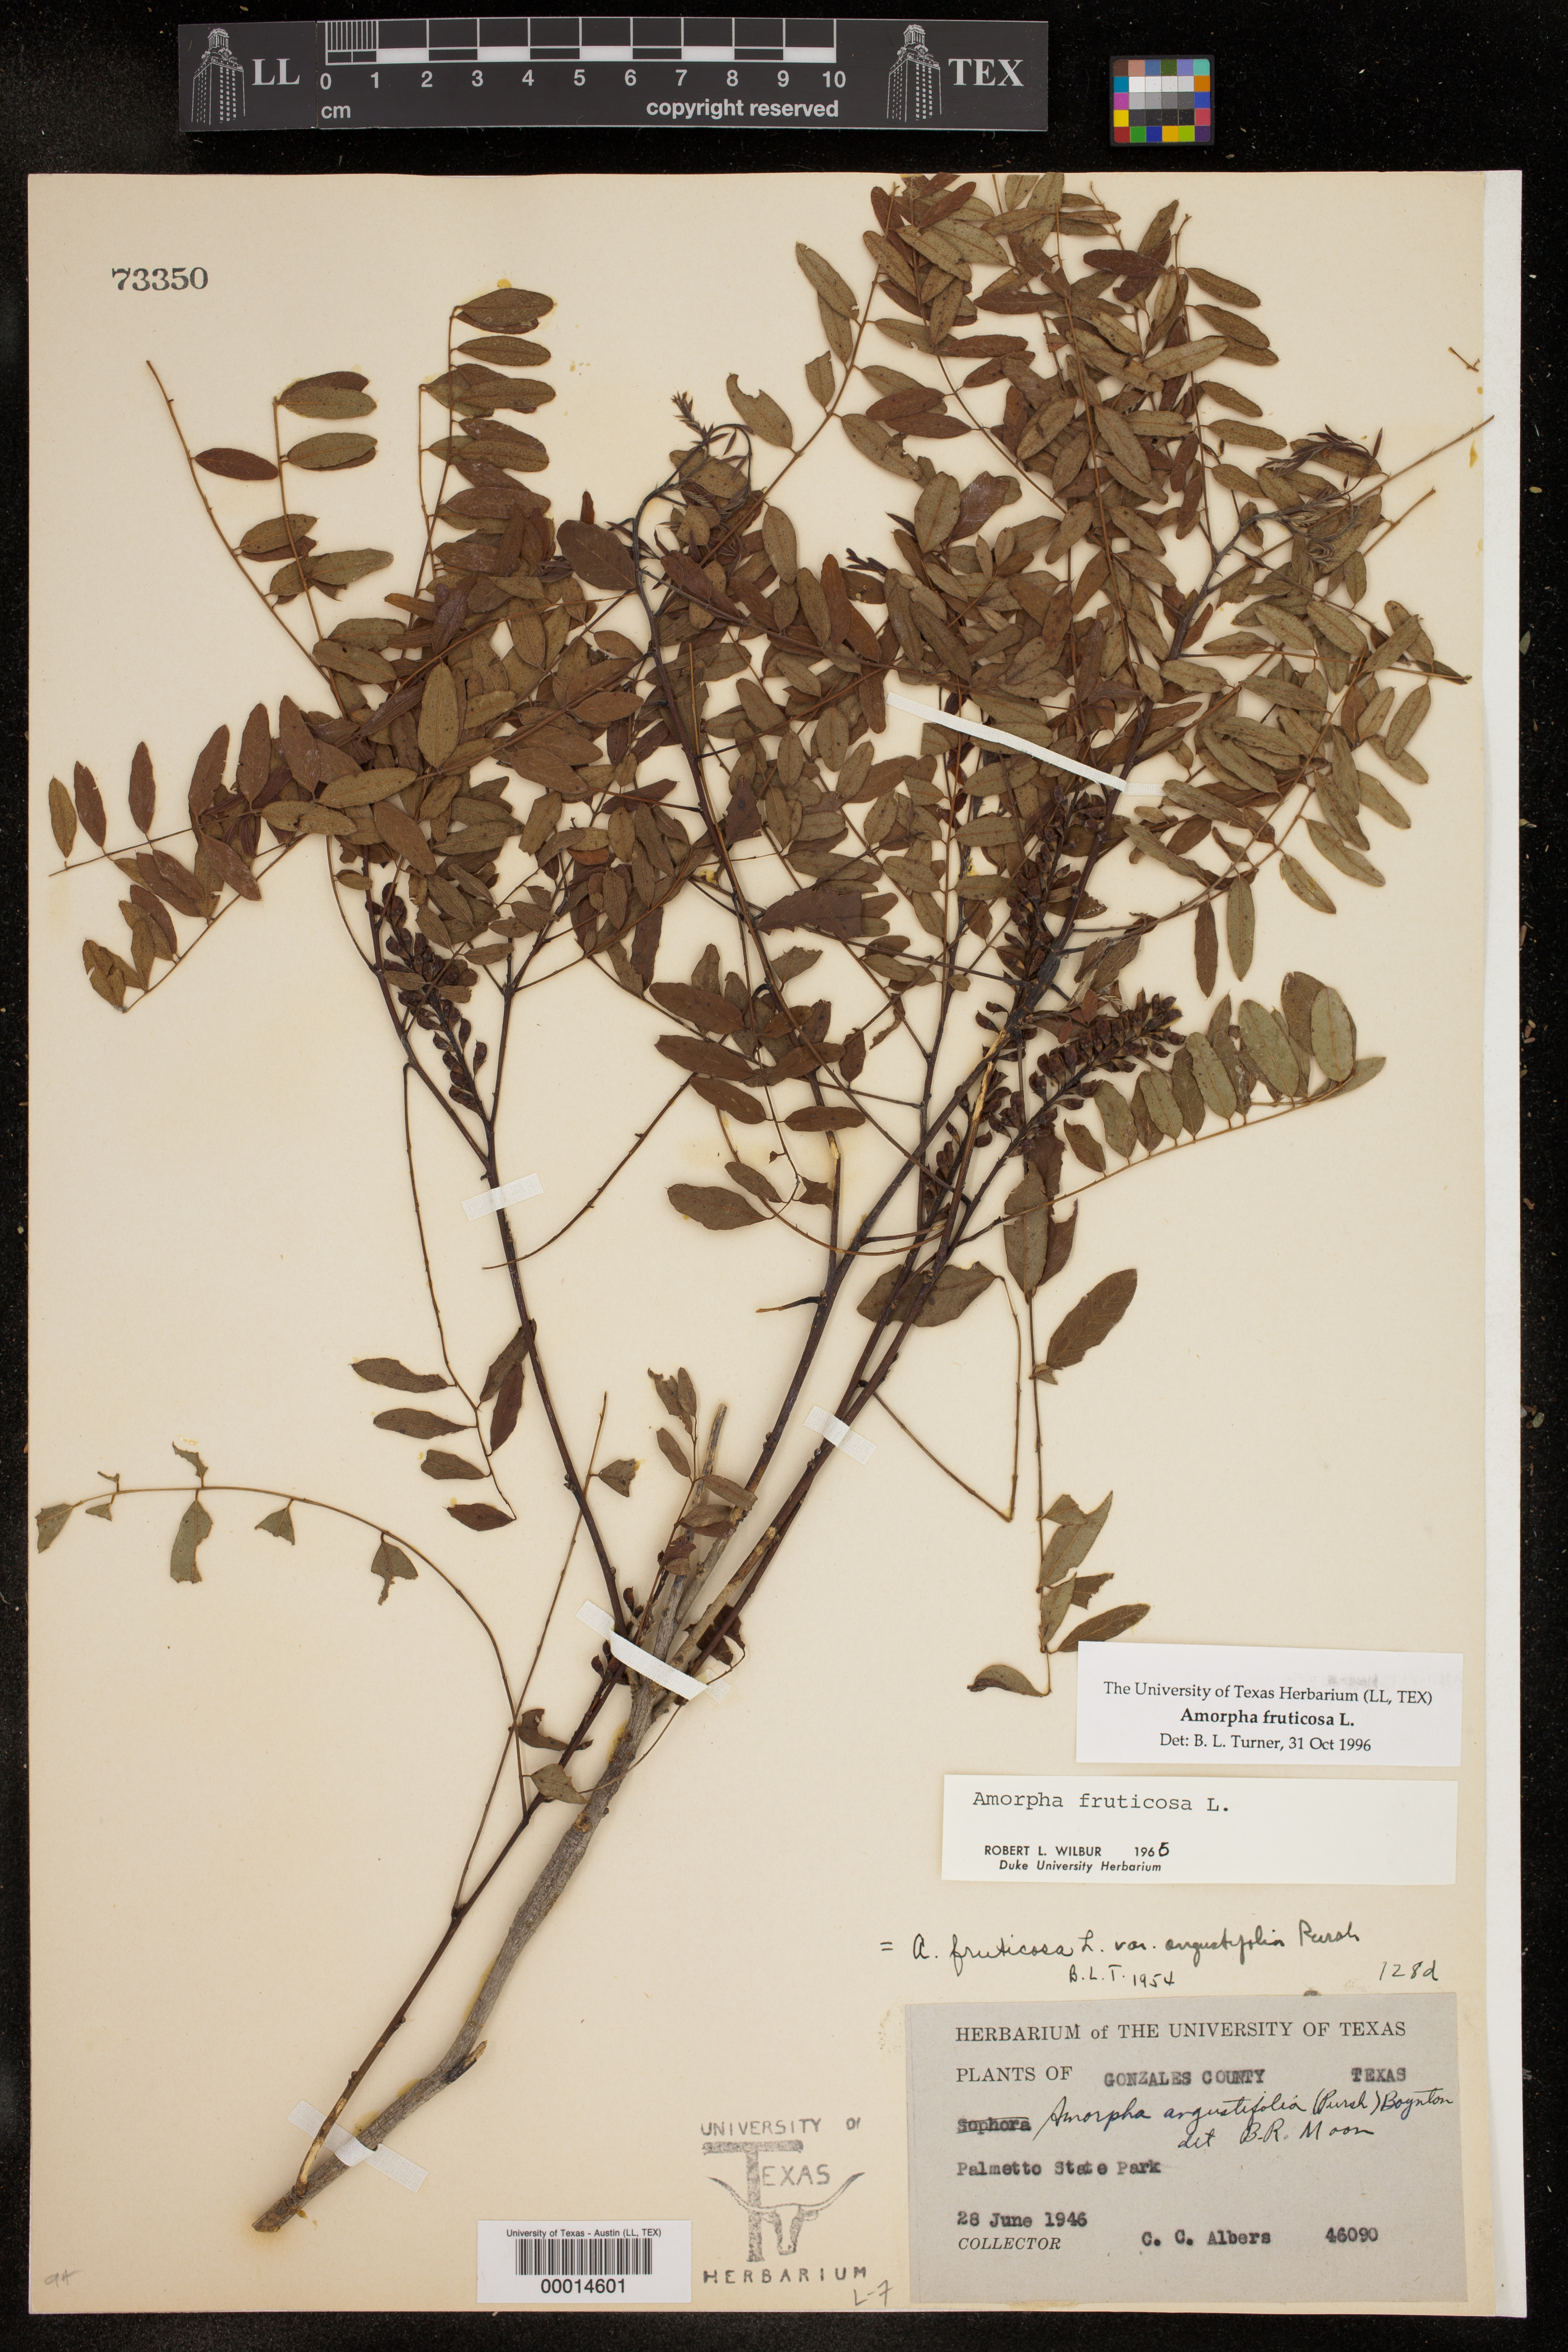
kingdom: Plantae
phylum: Tracheophyta
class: Magnoliopsida
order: Fabales
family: Fabaceae
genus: Amorpha
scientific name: Amorpha fruticosa
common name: False indigo
